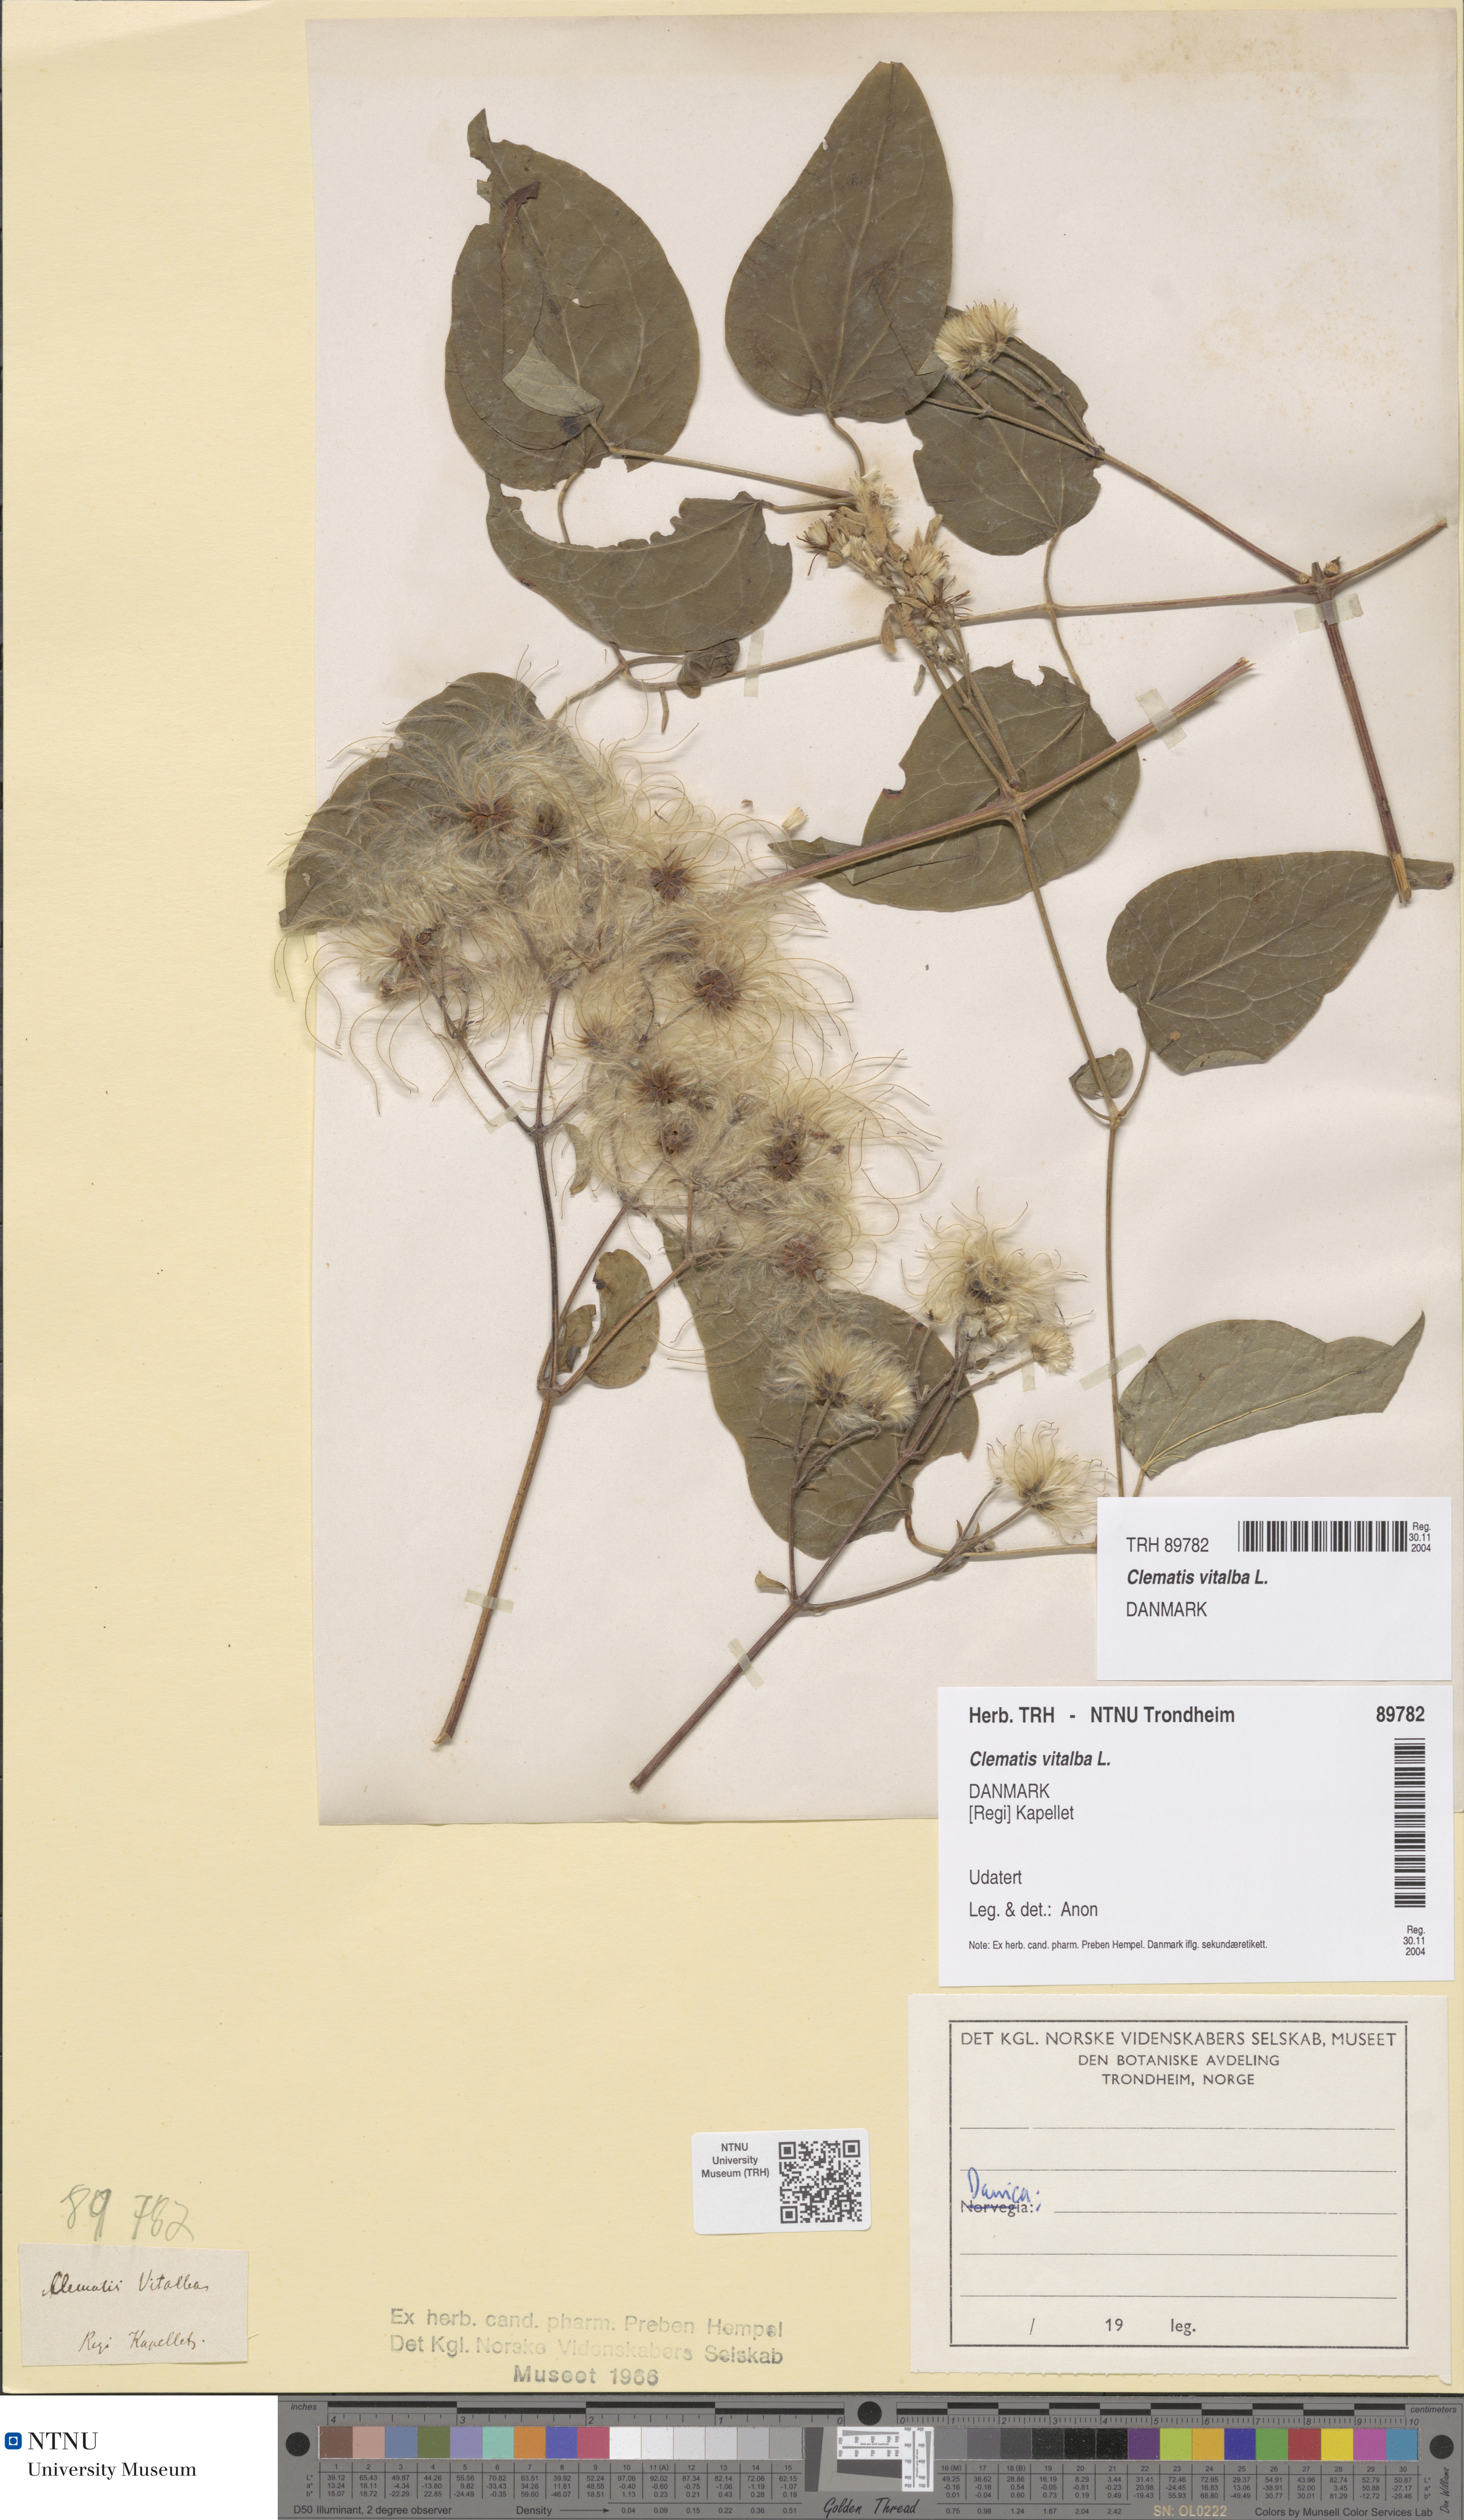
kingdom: Plantae
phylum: Tracheophyta
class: Magnoliopsida
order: Ranunculales
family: Ranunculaceae
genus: Clematis
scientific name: Clematis vitalba
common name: Evergreen clematis
